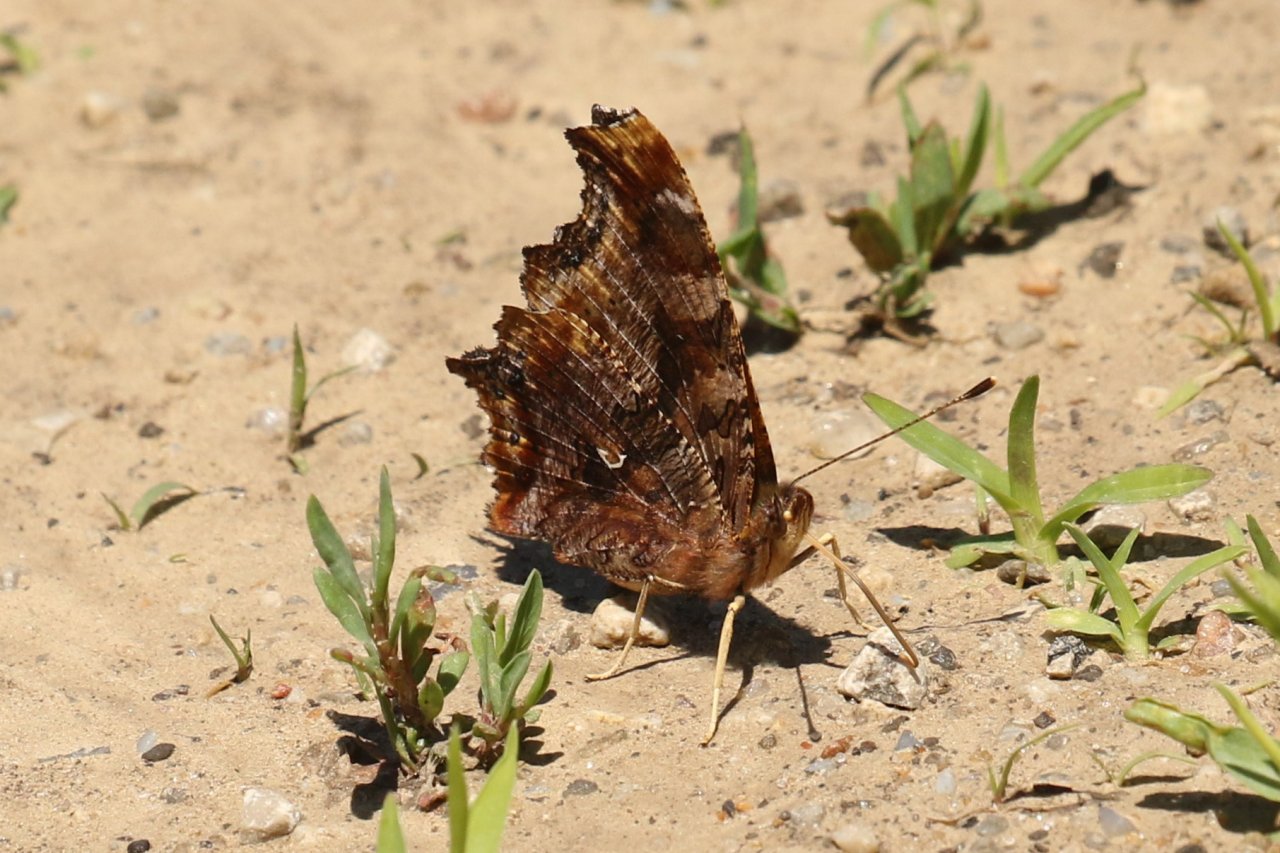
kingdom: Animalia
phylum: Arthropoda
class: Insecta
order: Lepidoptera
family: Nymphalidae
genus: Polygonia
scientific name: Polygonia comma
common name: Eastern Comma
